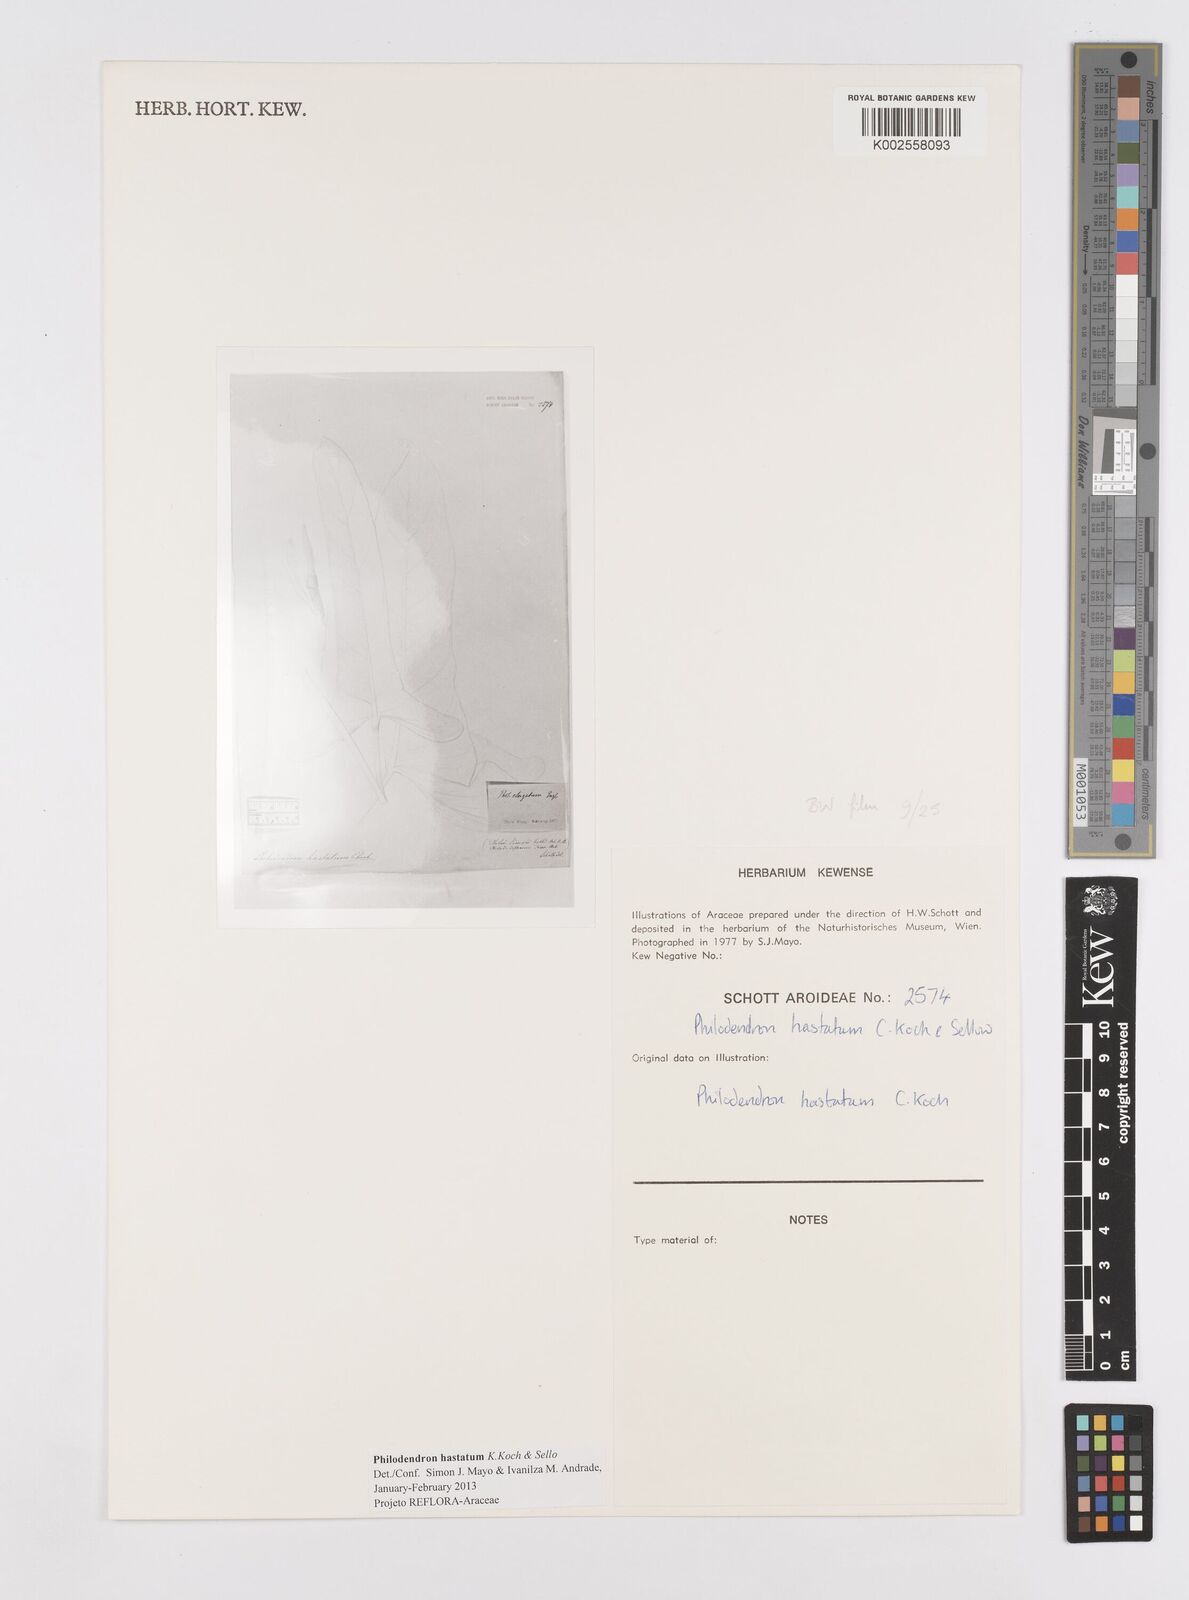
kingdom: Plantae
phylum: Tracheophyta
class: Liliopsida
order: Alismatales
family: Araceae
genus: Philodendron
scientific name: Philodendron hastatum
